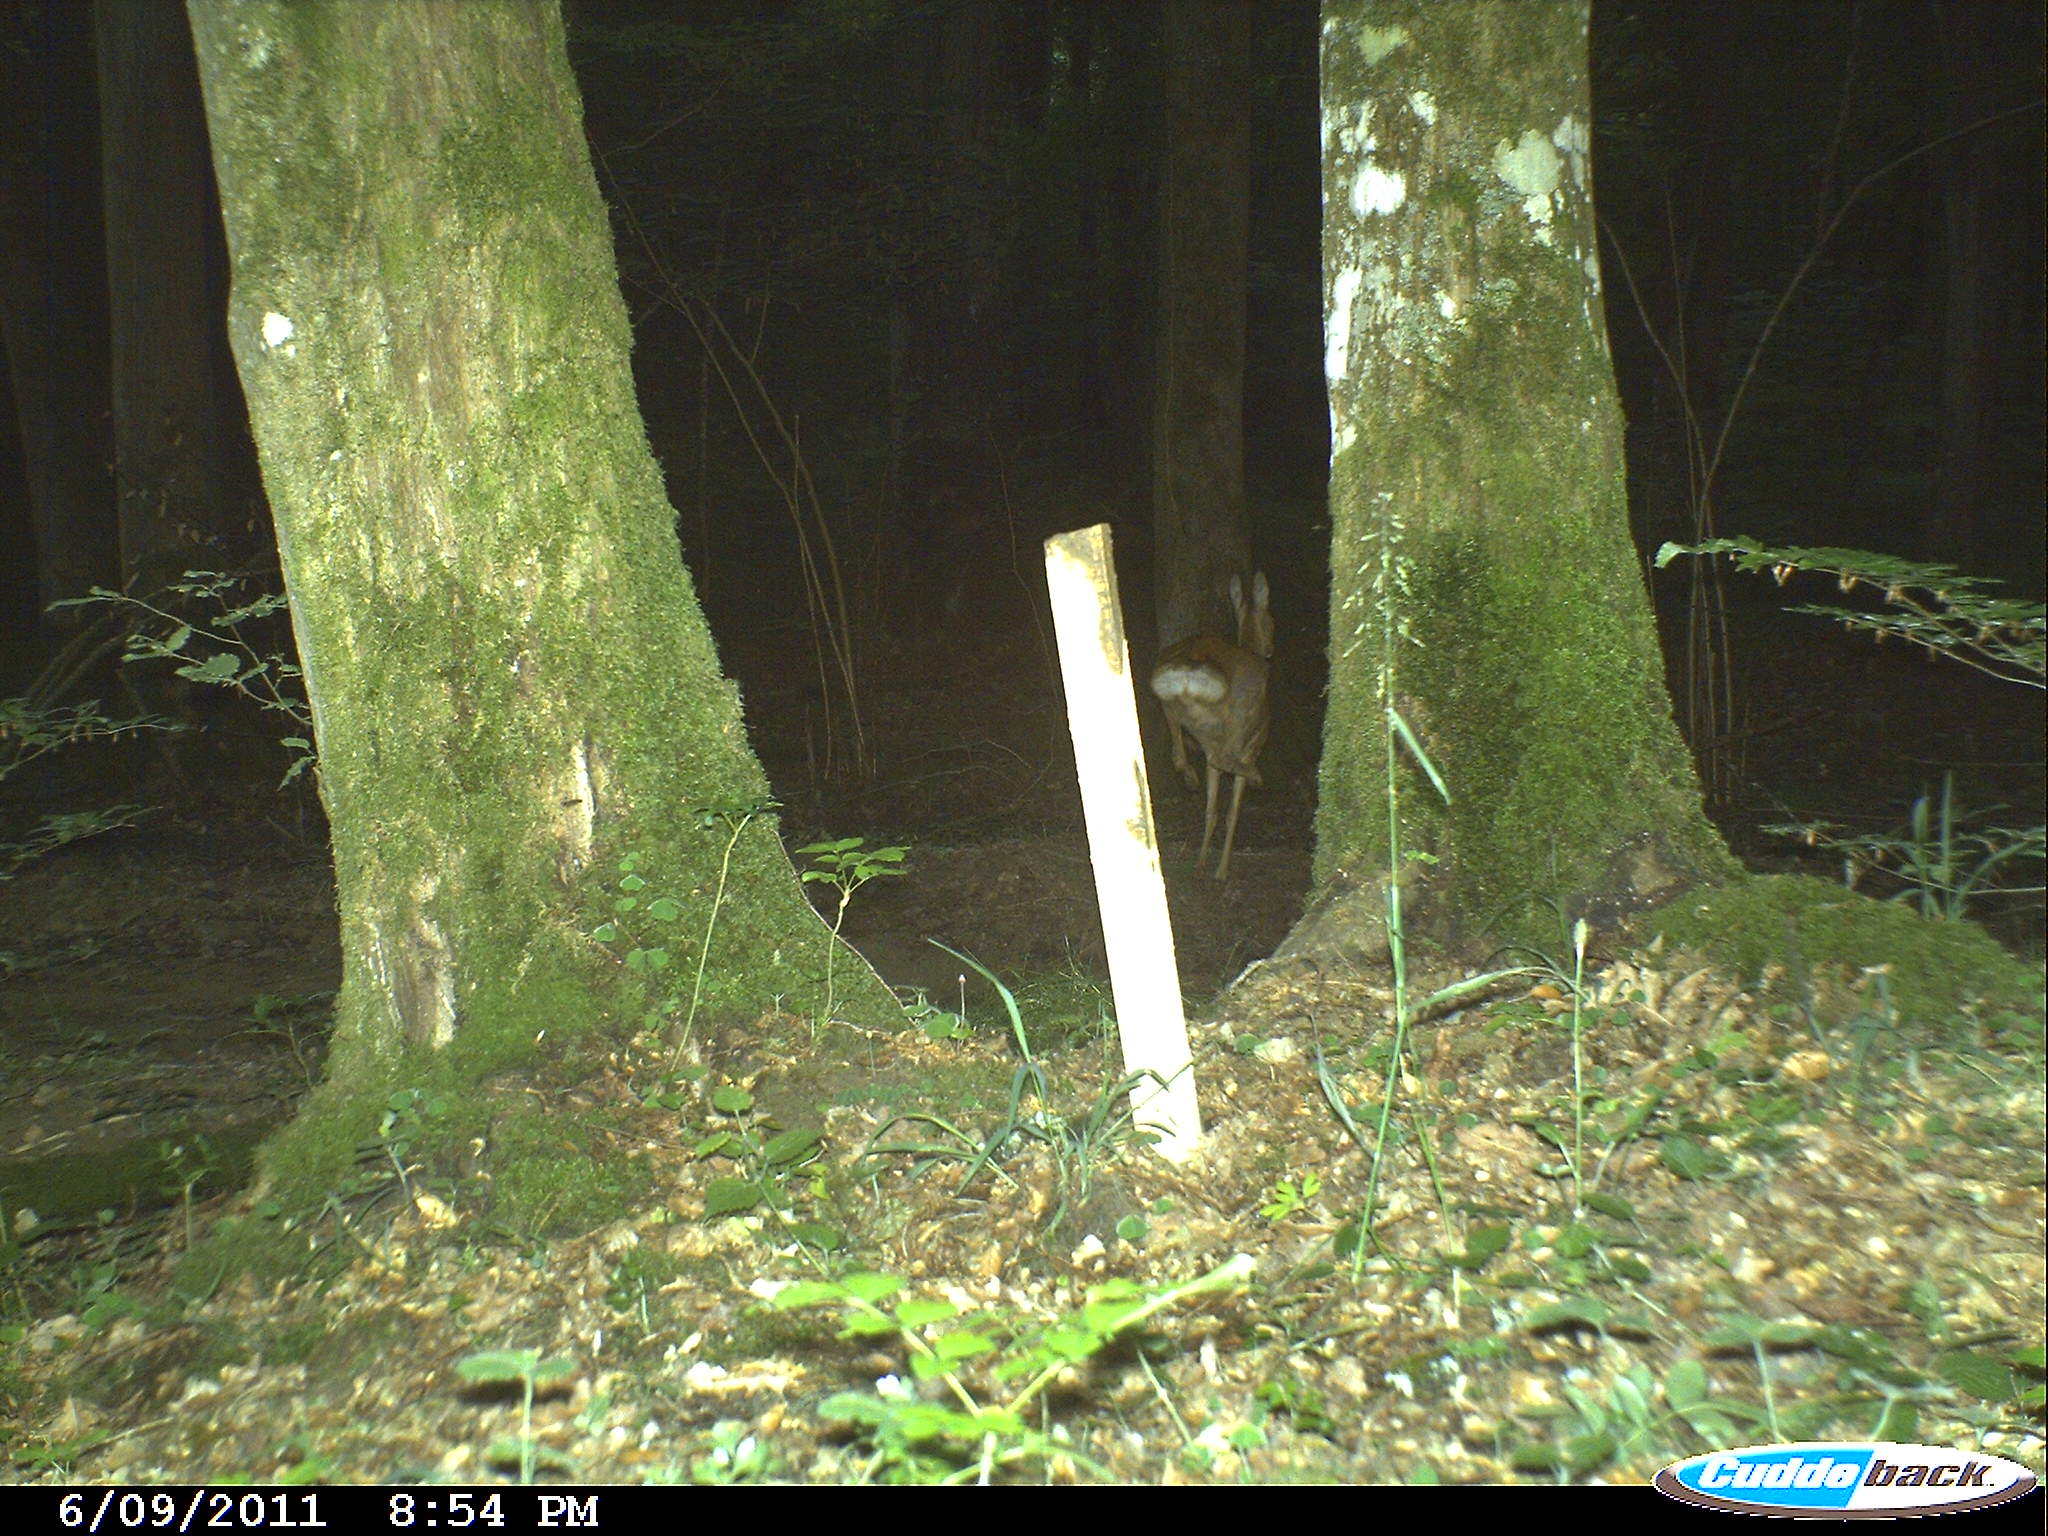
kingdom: Animalia
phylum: Chordata
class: Mammalia
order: Artiodactyla
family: Cervidae
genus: Capreolus
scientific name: Capreolus capreolus
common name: Western roe deer
